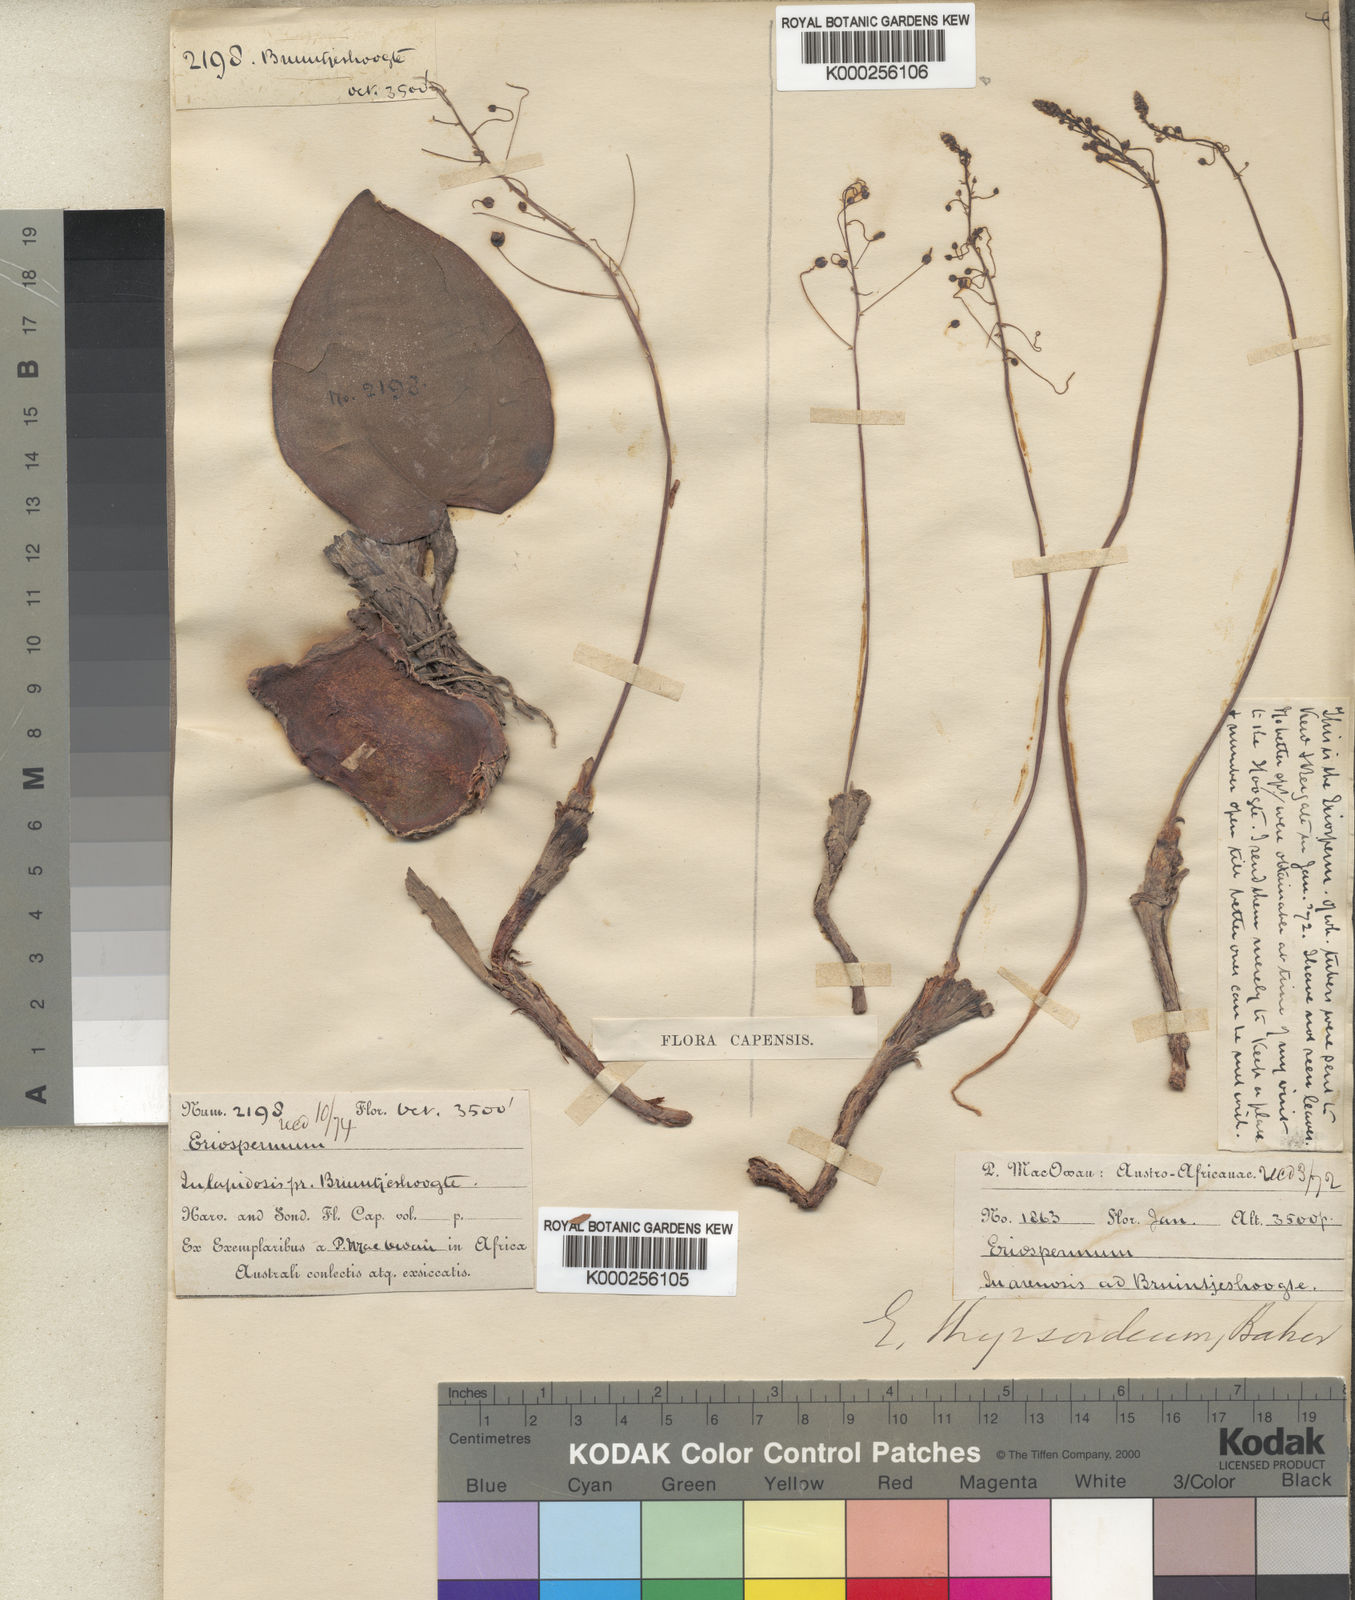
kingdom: Plantae
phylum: Tracheophyta
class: Liliopsida
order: Asparagales
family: Asparagaceae
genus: Eriospermum
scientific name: Eriospermum
